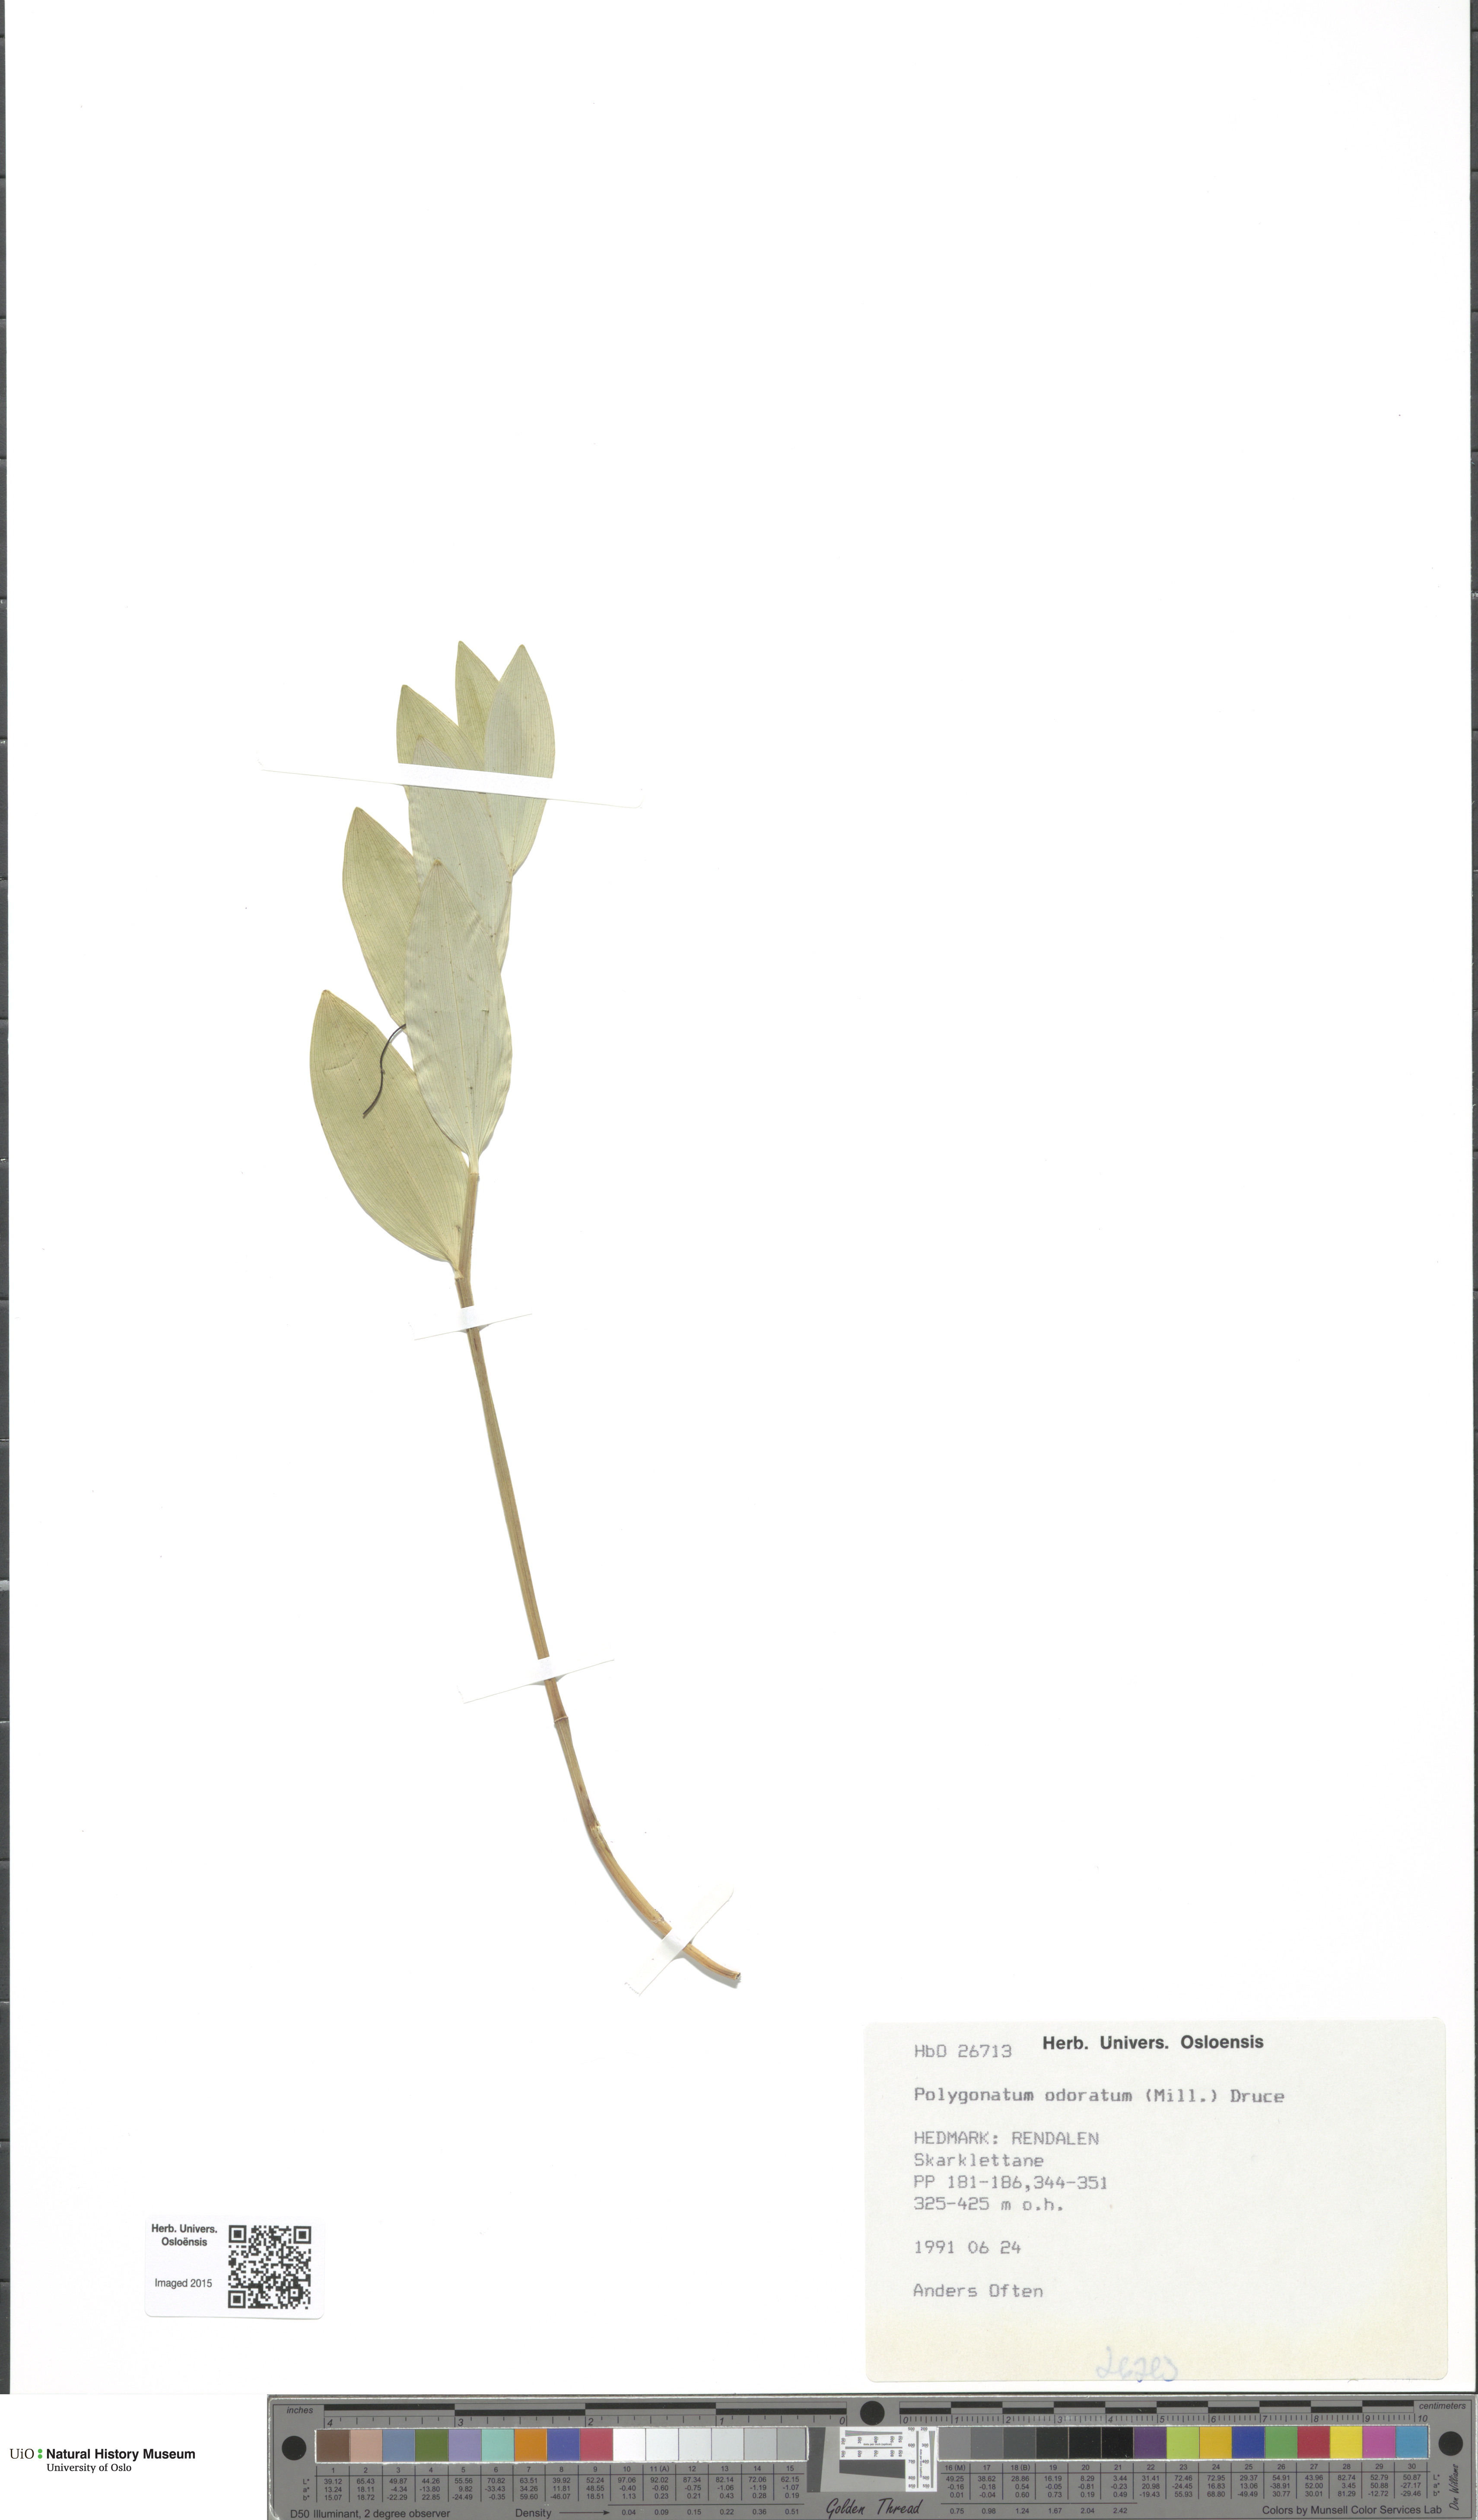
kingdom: Plantae
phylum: Tracheophyta
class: Liliopsida
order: Asparagales
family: Asparagaceae
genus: Polygonatum
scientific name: Polygonatum odoratum
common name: Angular solomon's-seal
